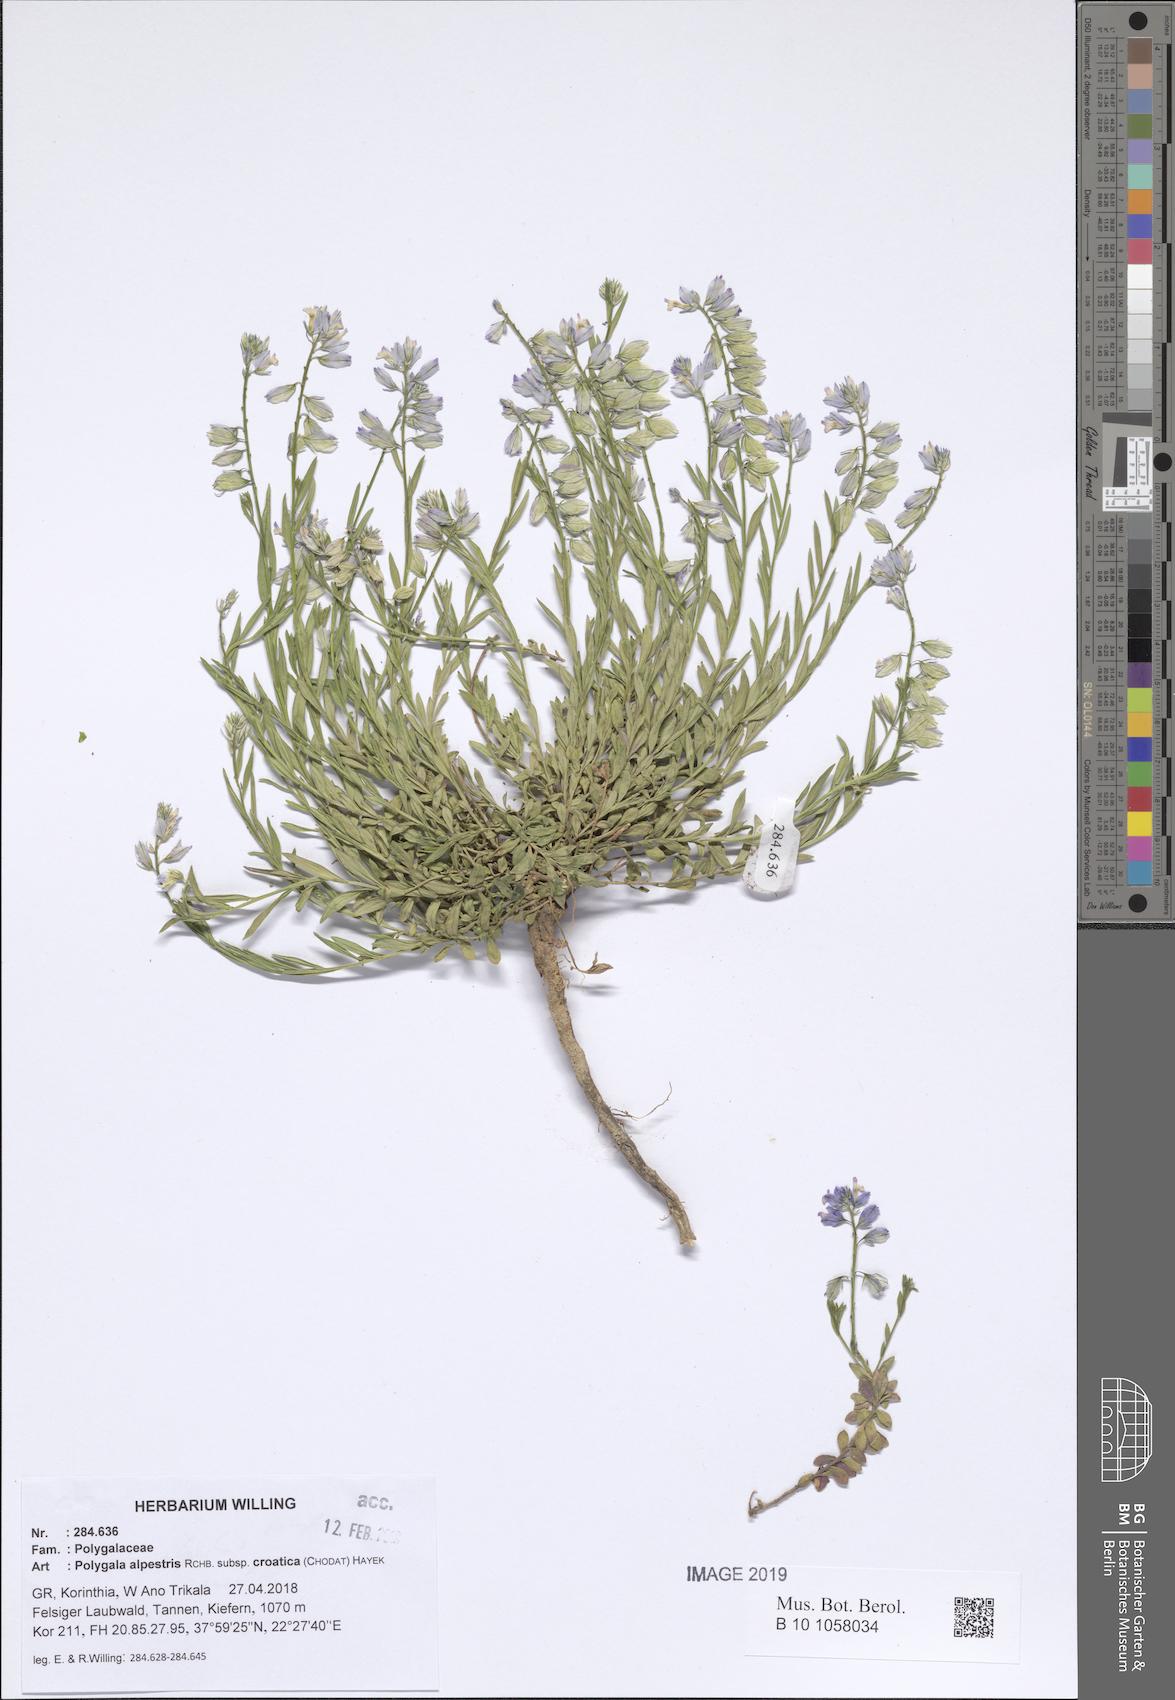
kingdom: Plantae
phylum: Tracheophyta
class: Magnoliopsida
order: Fabales
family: Polygalaceae
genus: Polygala
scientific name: Polygala alpestris
